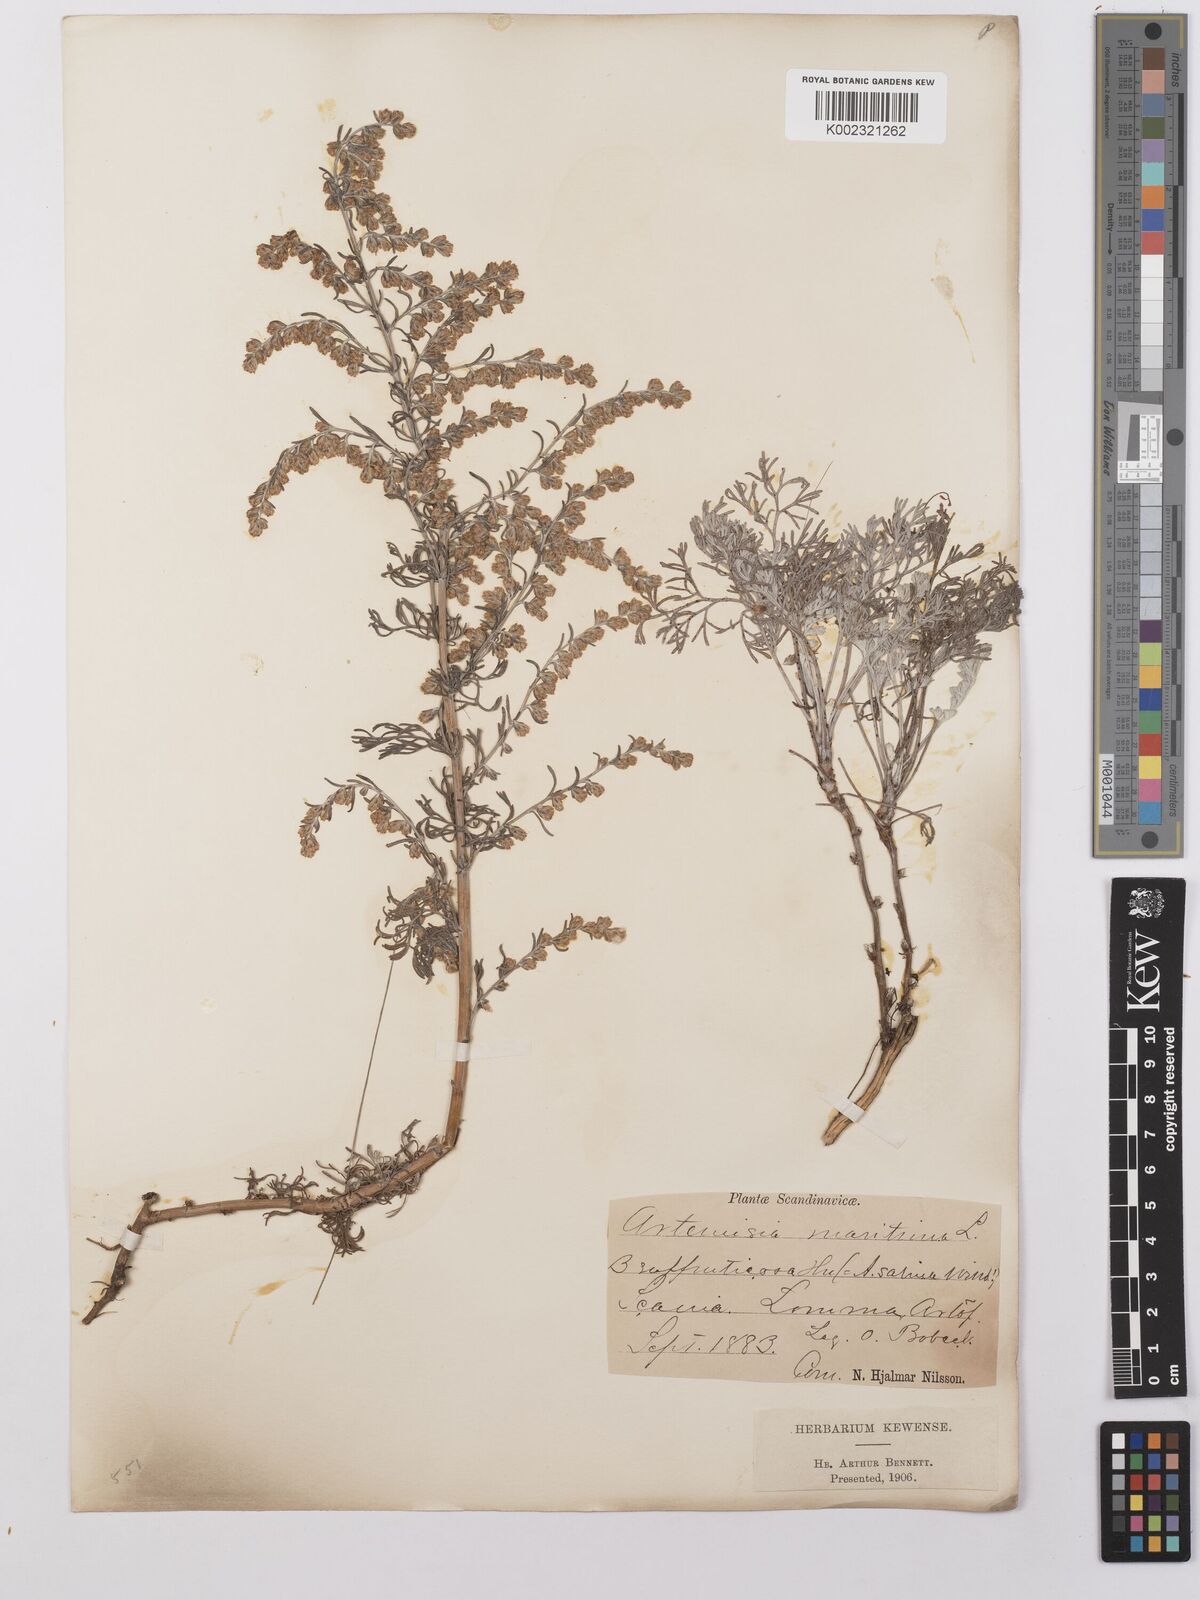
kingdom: Plantae
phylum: Tracheophyta
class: Magnoliopsida
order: Asterales
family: Asteraceae
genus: Artemisia
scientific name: Artemisia maritima
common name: Wormseed
